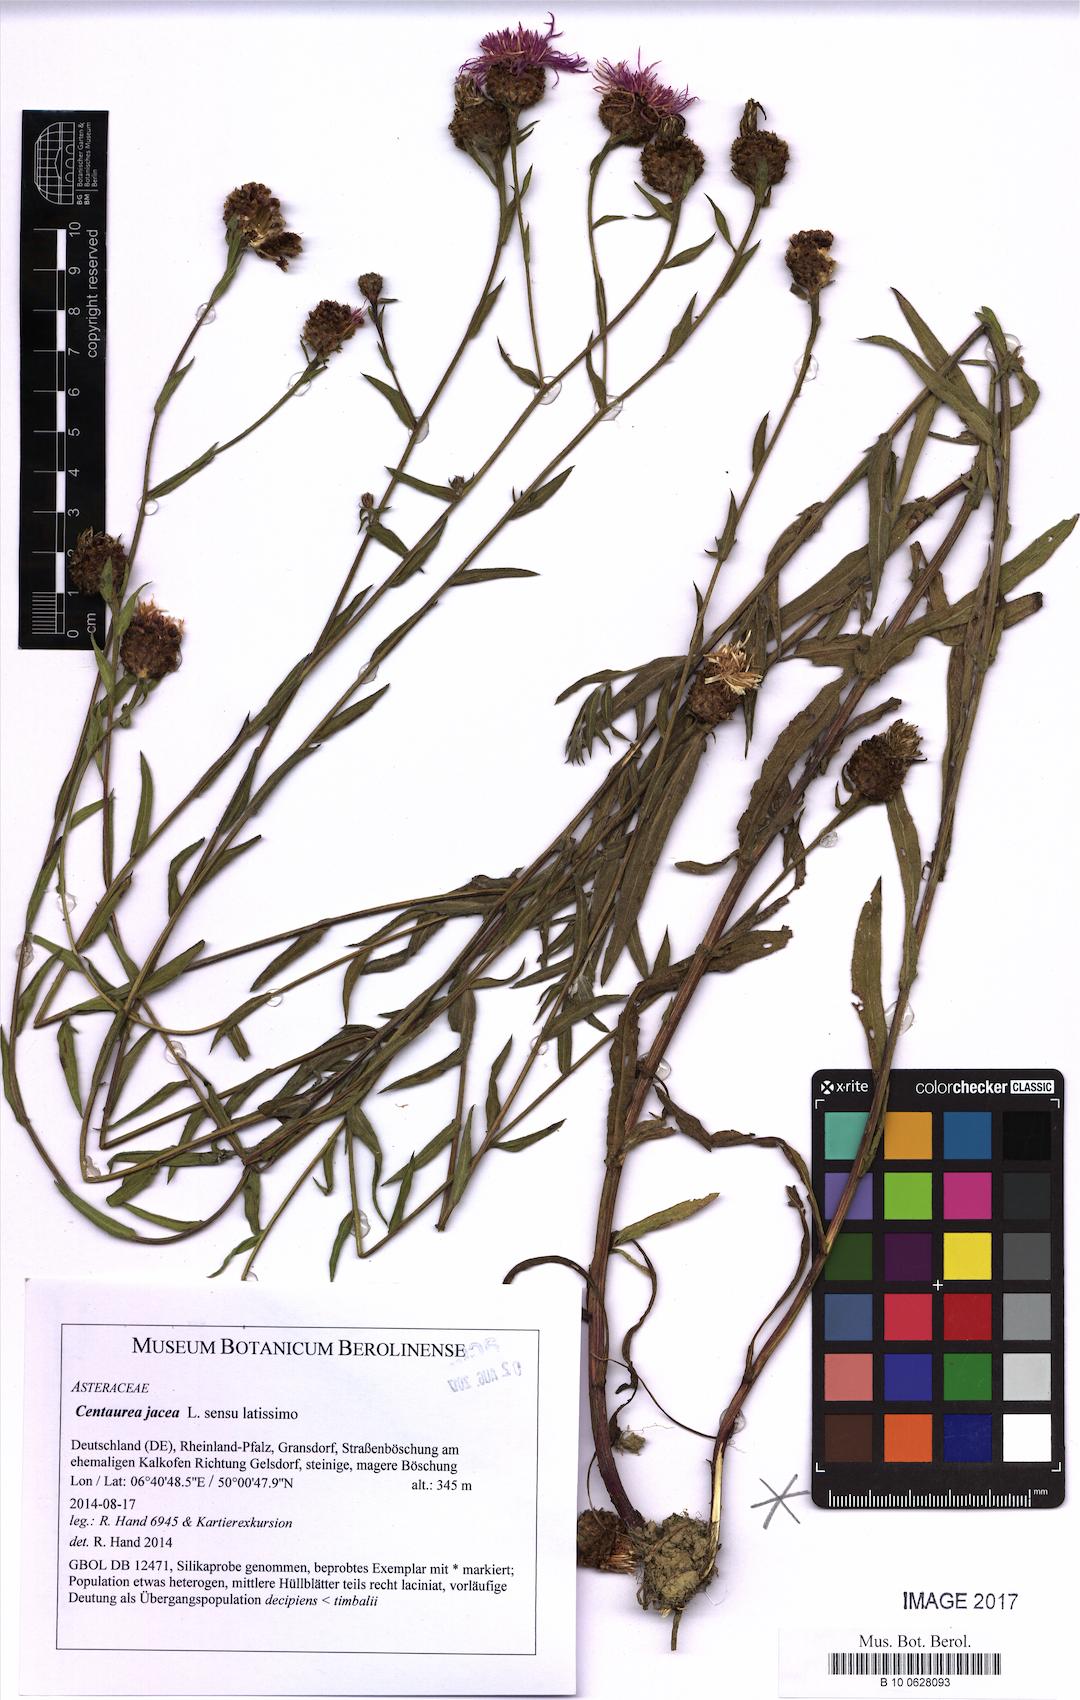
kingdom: Plantae
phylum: Tracheophyta
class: Magnoliopsida
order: Asterales
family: Asteraceae
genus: Centaurea
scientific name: Centaurea jacea
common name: Brown knapweed
